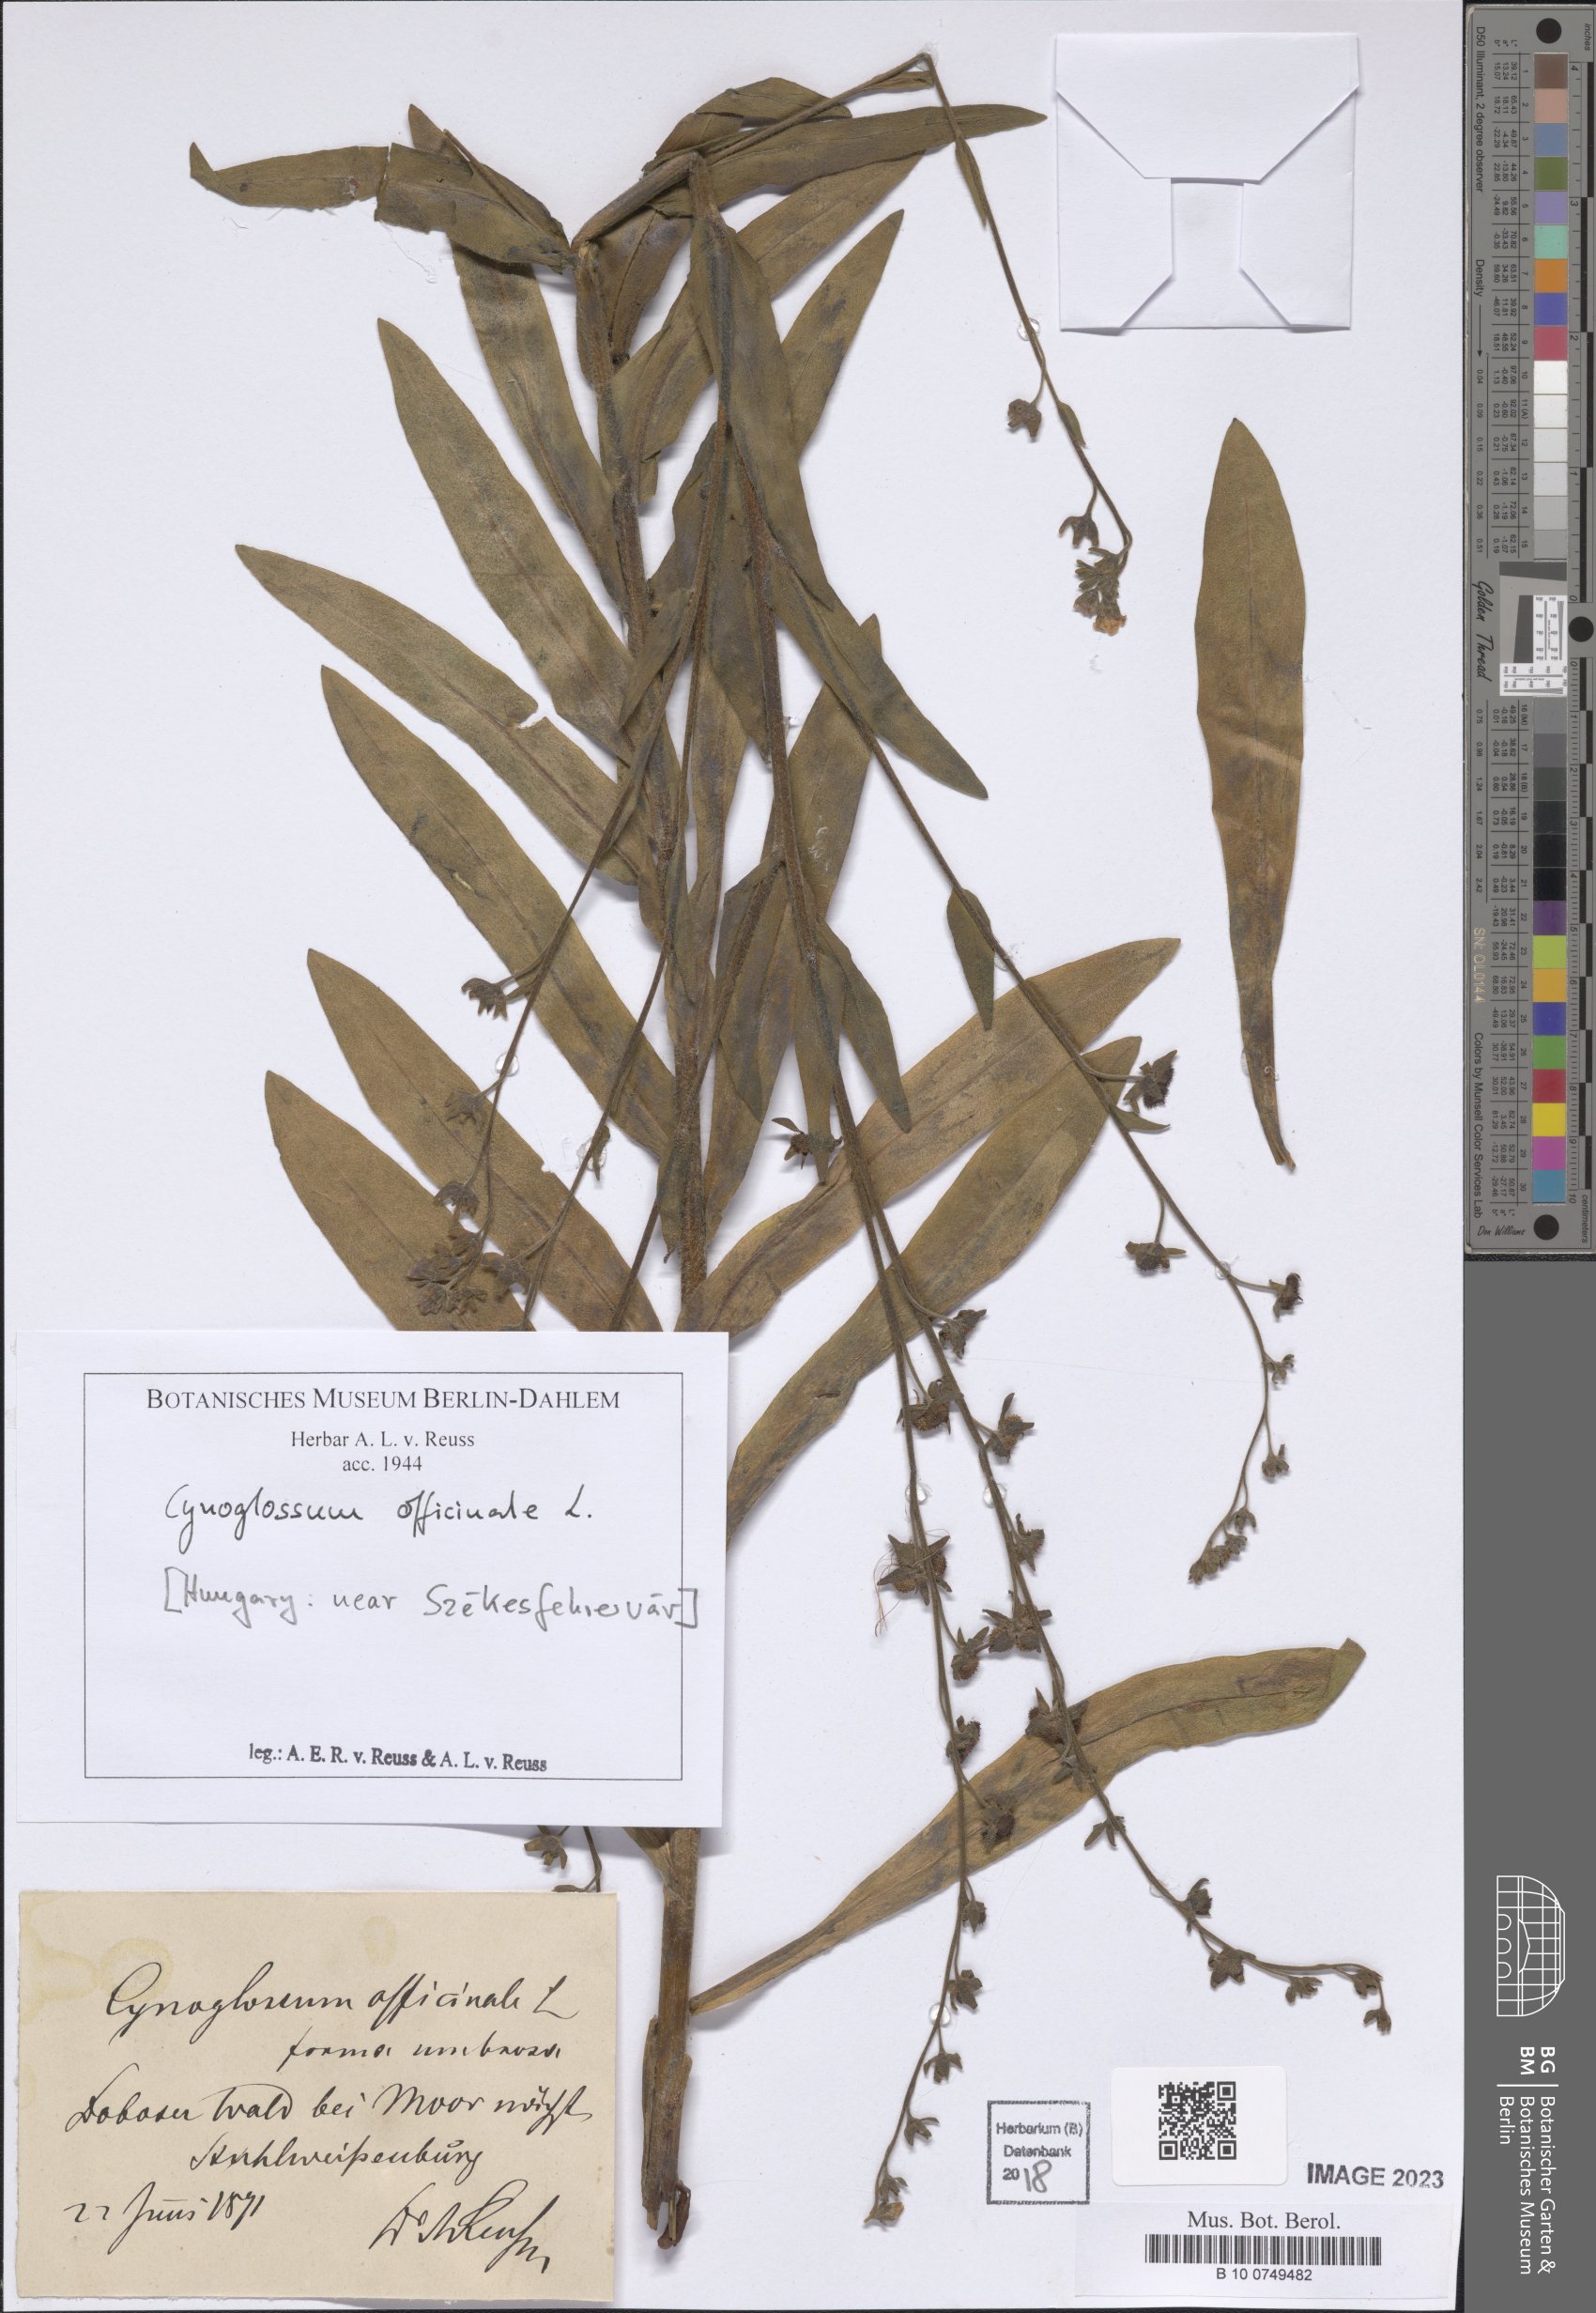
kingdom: Plantae
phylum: Tracheophyta
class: Magnoliopsida
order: Boraginales
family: Boraginaceae
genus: Cynoglossum
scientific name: Cynoglossum officinale
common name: Hound's-tongue
